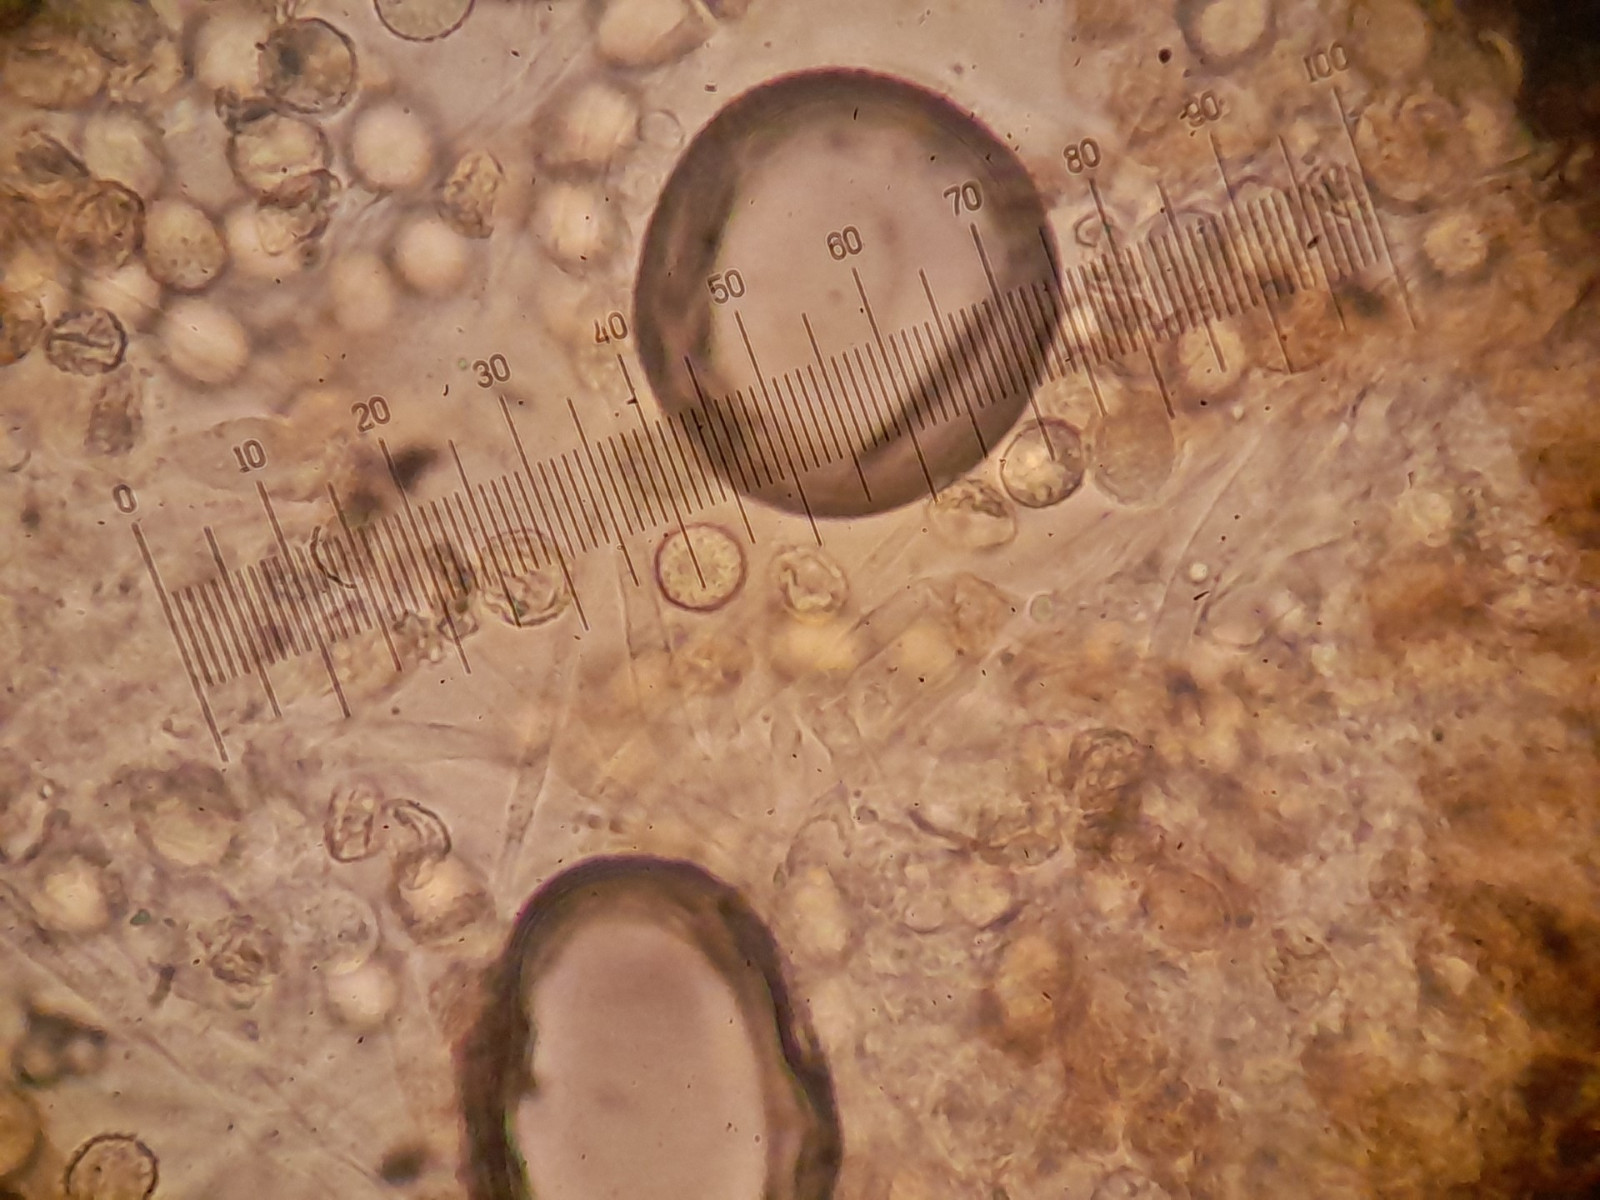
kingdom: Fungi
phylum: Basidiomycota
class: Agaricomycetes
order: Agaricales
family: Crepidotaceae
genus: Crepidotus
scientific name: Crepidotus cesatii
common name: almindelig muslingesvamp
